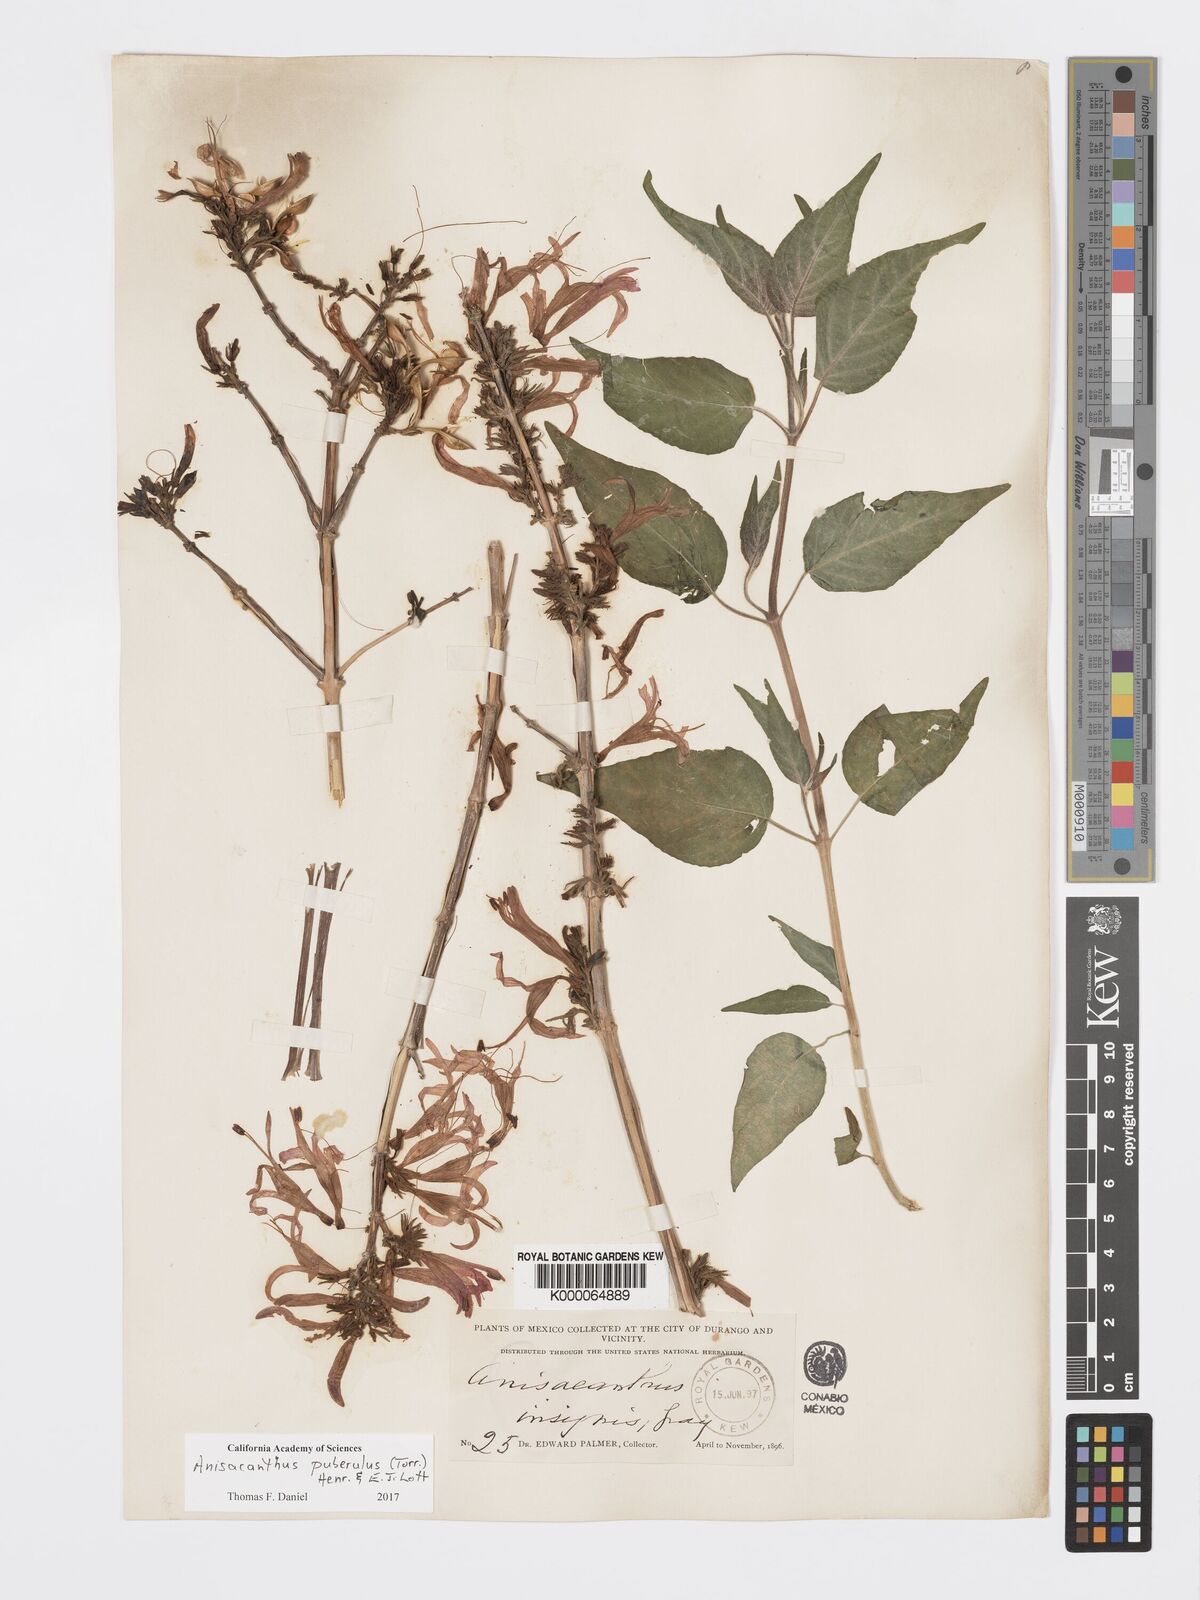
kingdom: Plantae
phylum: Tracheophyta
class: Magnoliopsida
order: Lamiales
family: Acanthaceae
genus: Anisacanthus
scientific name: Anisacanthus
